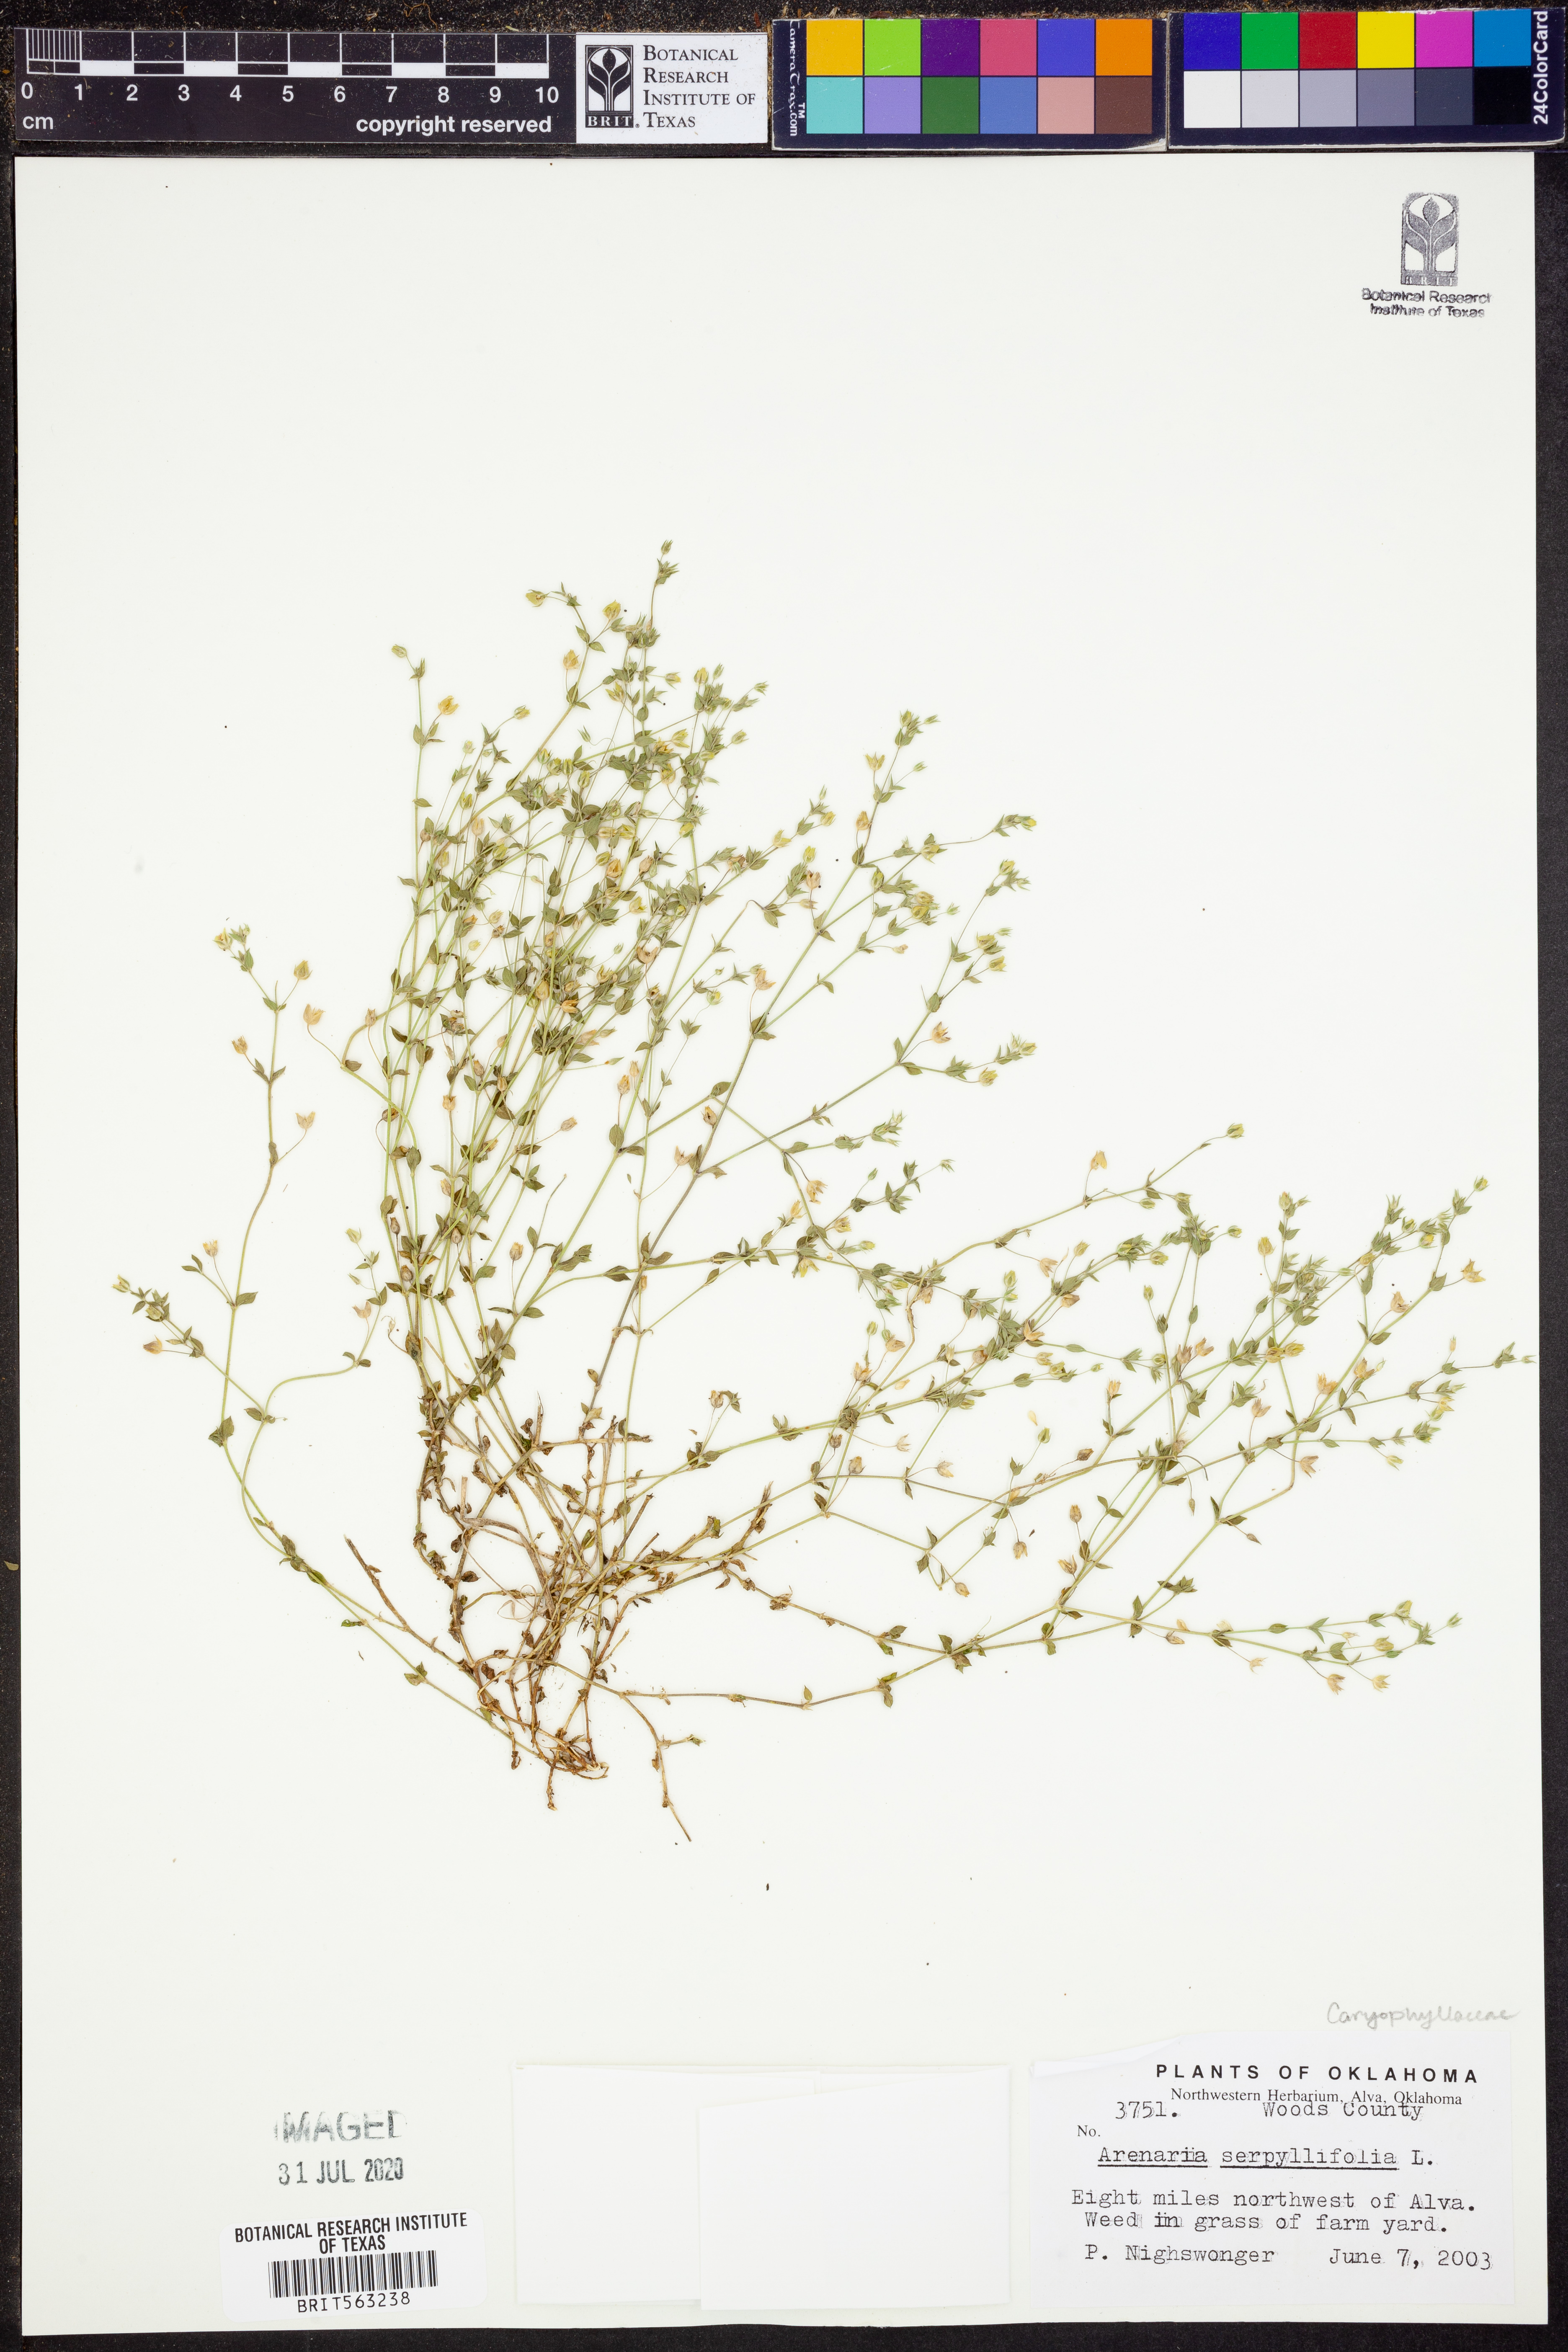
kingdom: Plantae
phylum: Tracheophyta
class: Magnoliopsida
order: Caryophyllales
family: Caryophyllaceae
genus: Arenaria
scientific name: Arenaria serpyllifolia
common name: Thyme-leaved sandwort
